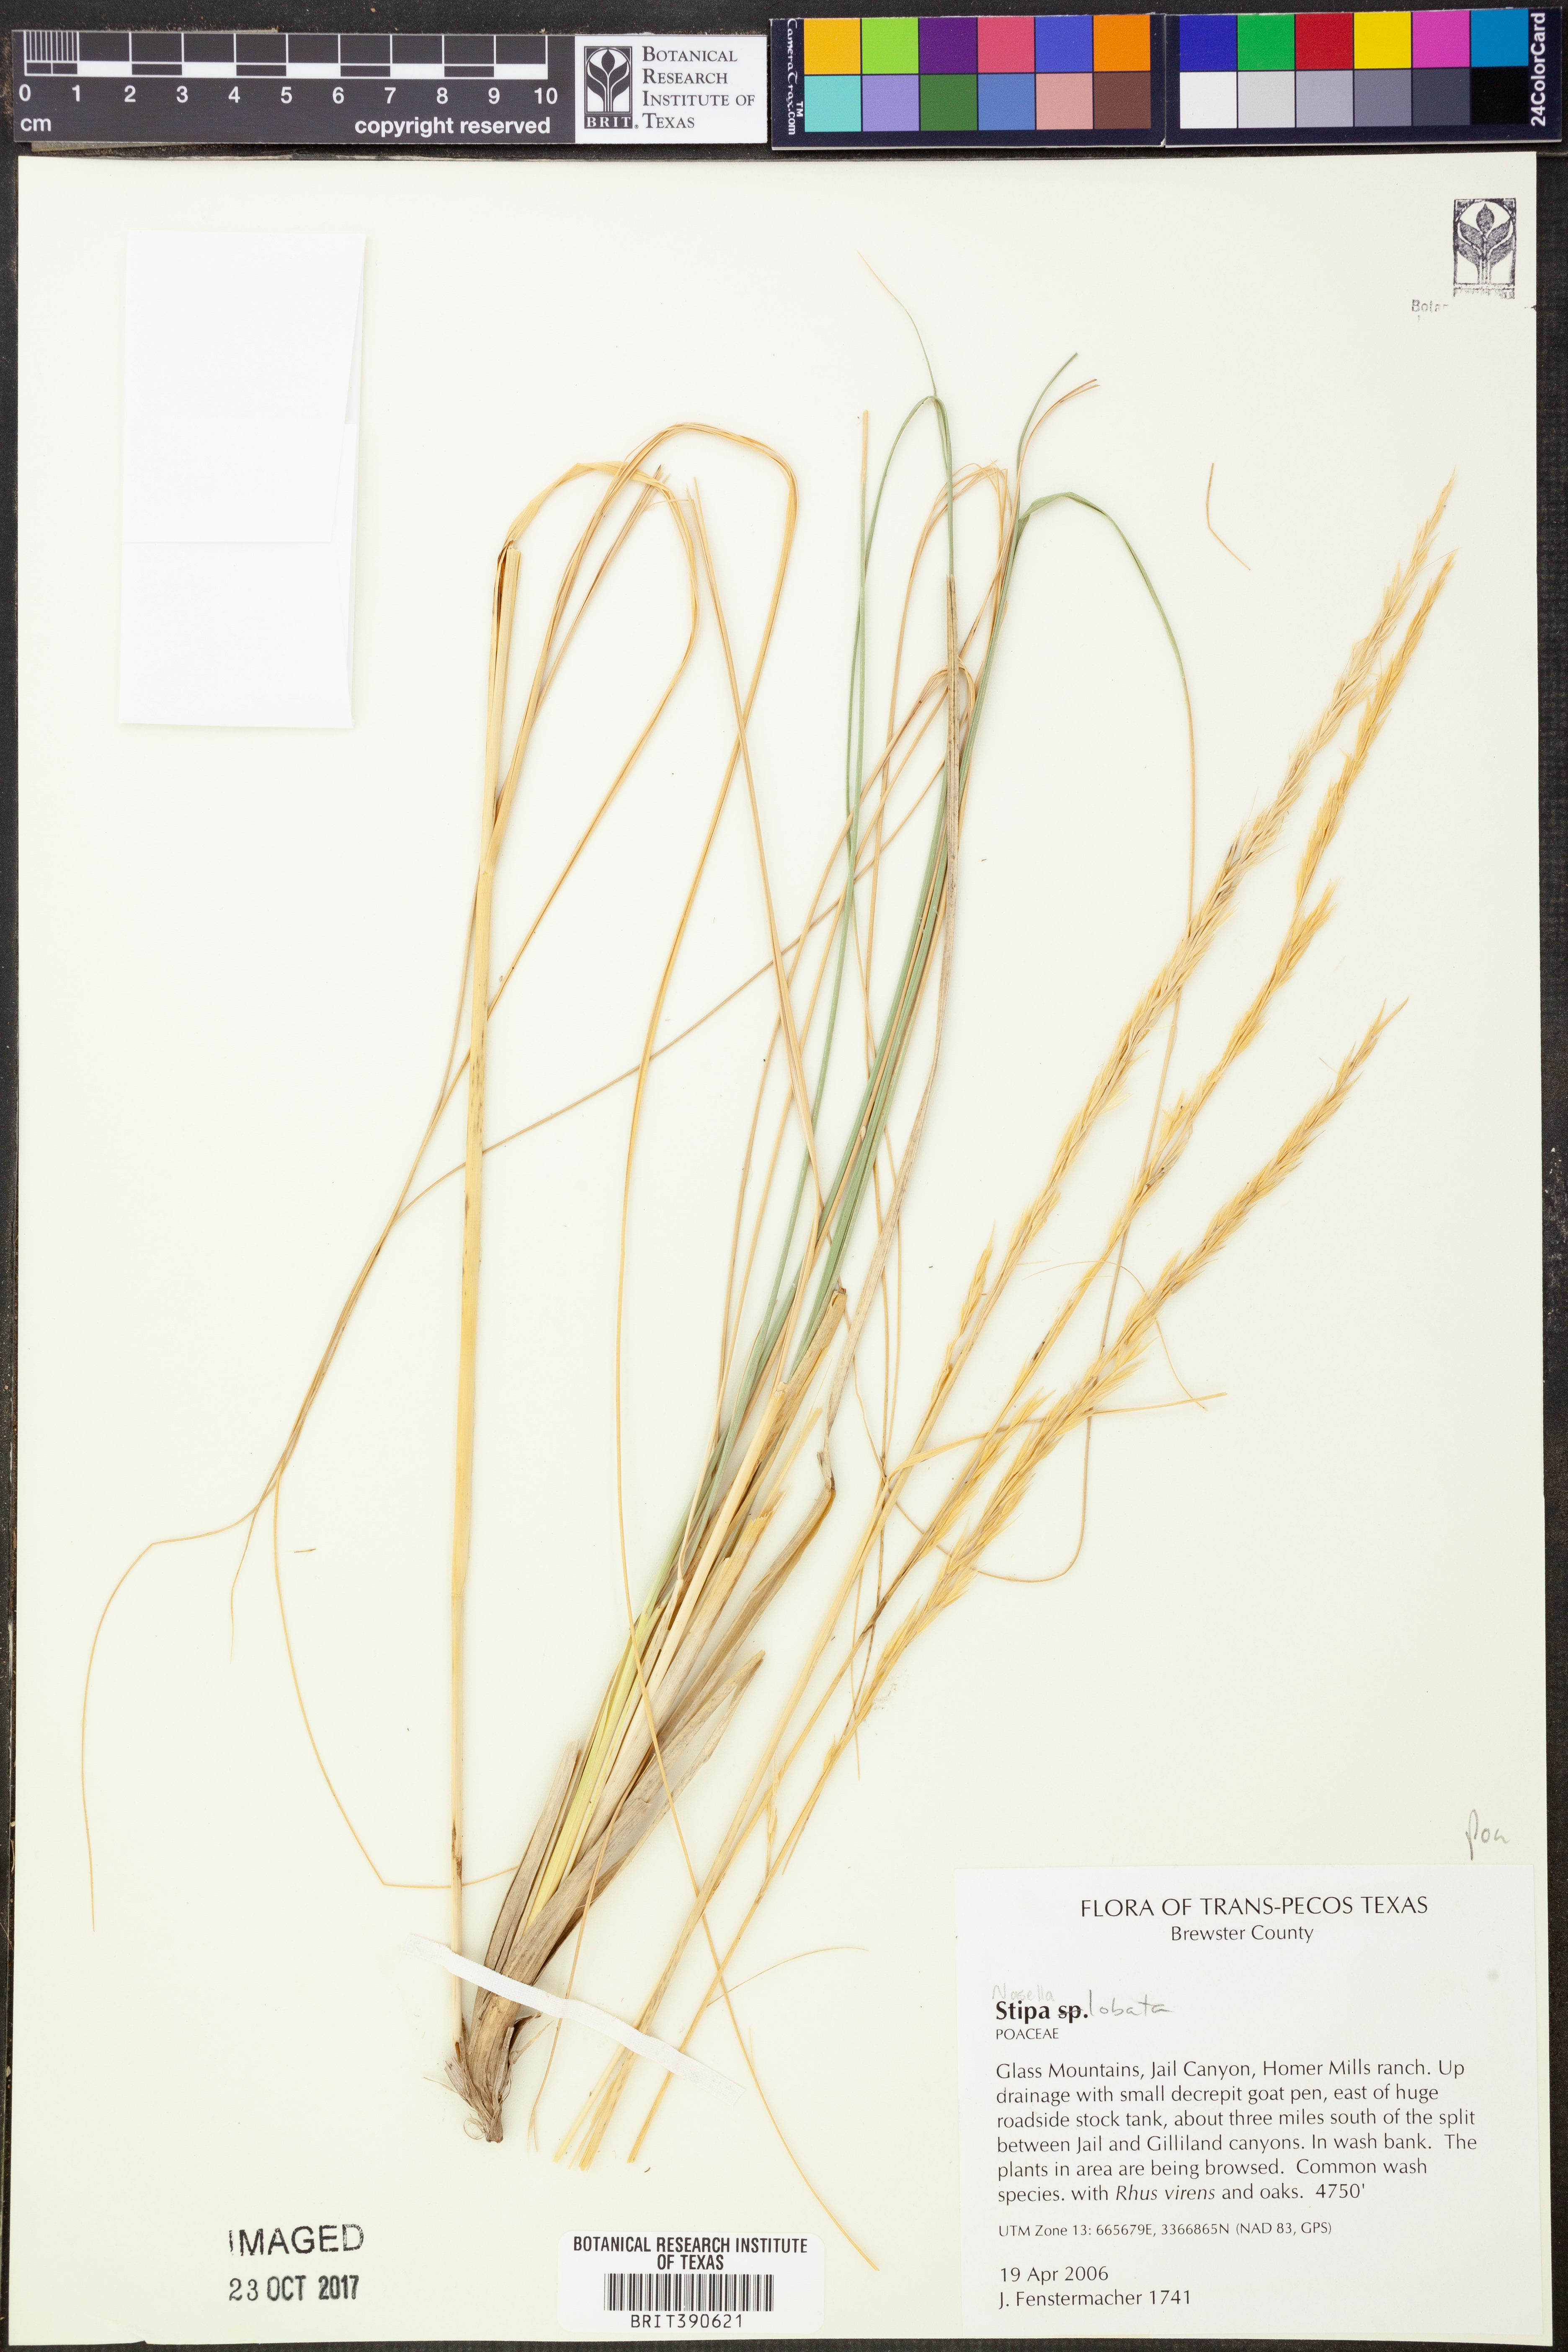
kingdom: Plantae
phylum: Tracheophyta
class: Liliopsida
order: Poales
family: Poaceae
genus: Eriocoma
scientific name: Eriocoma lobata
